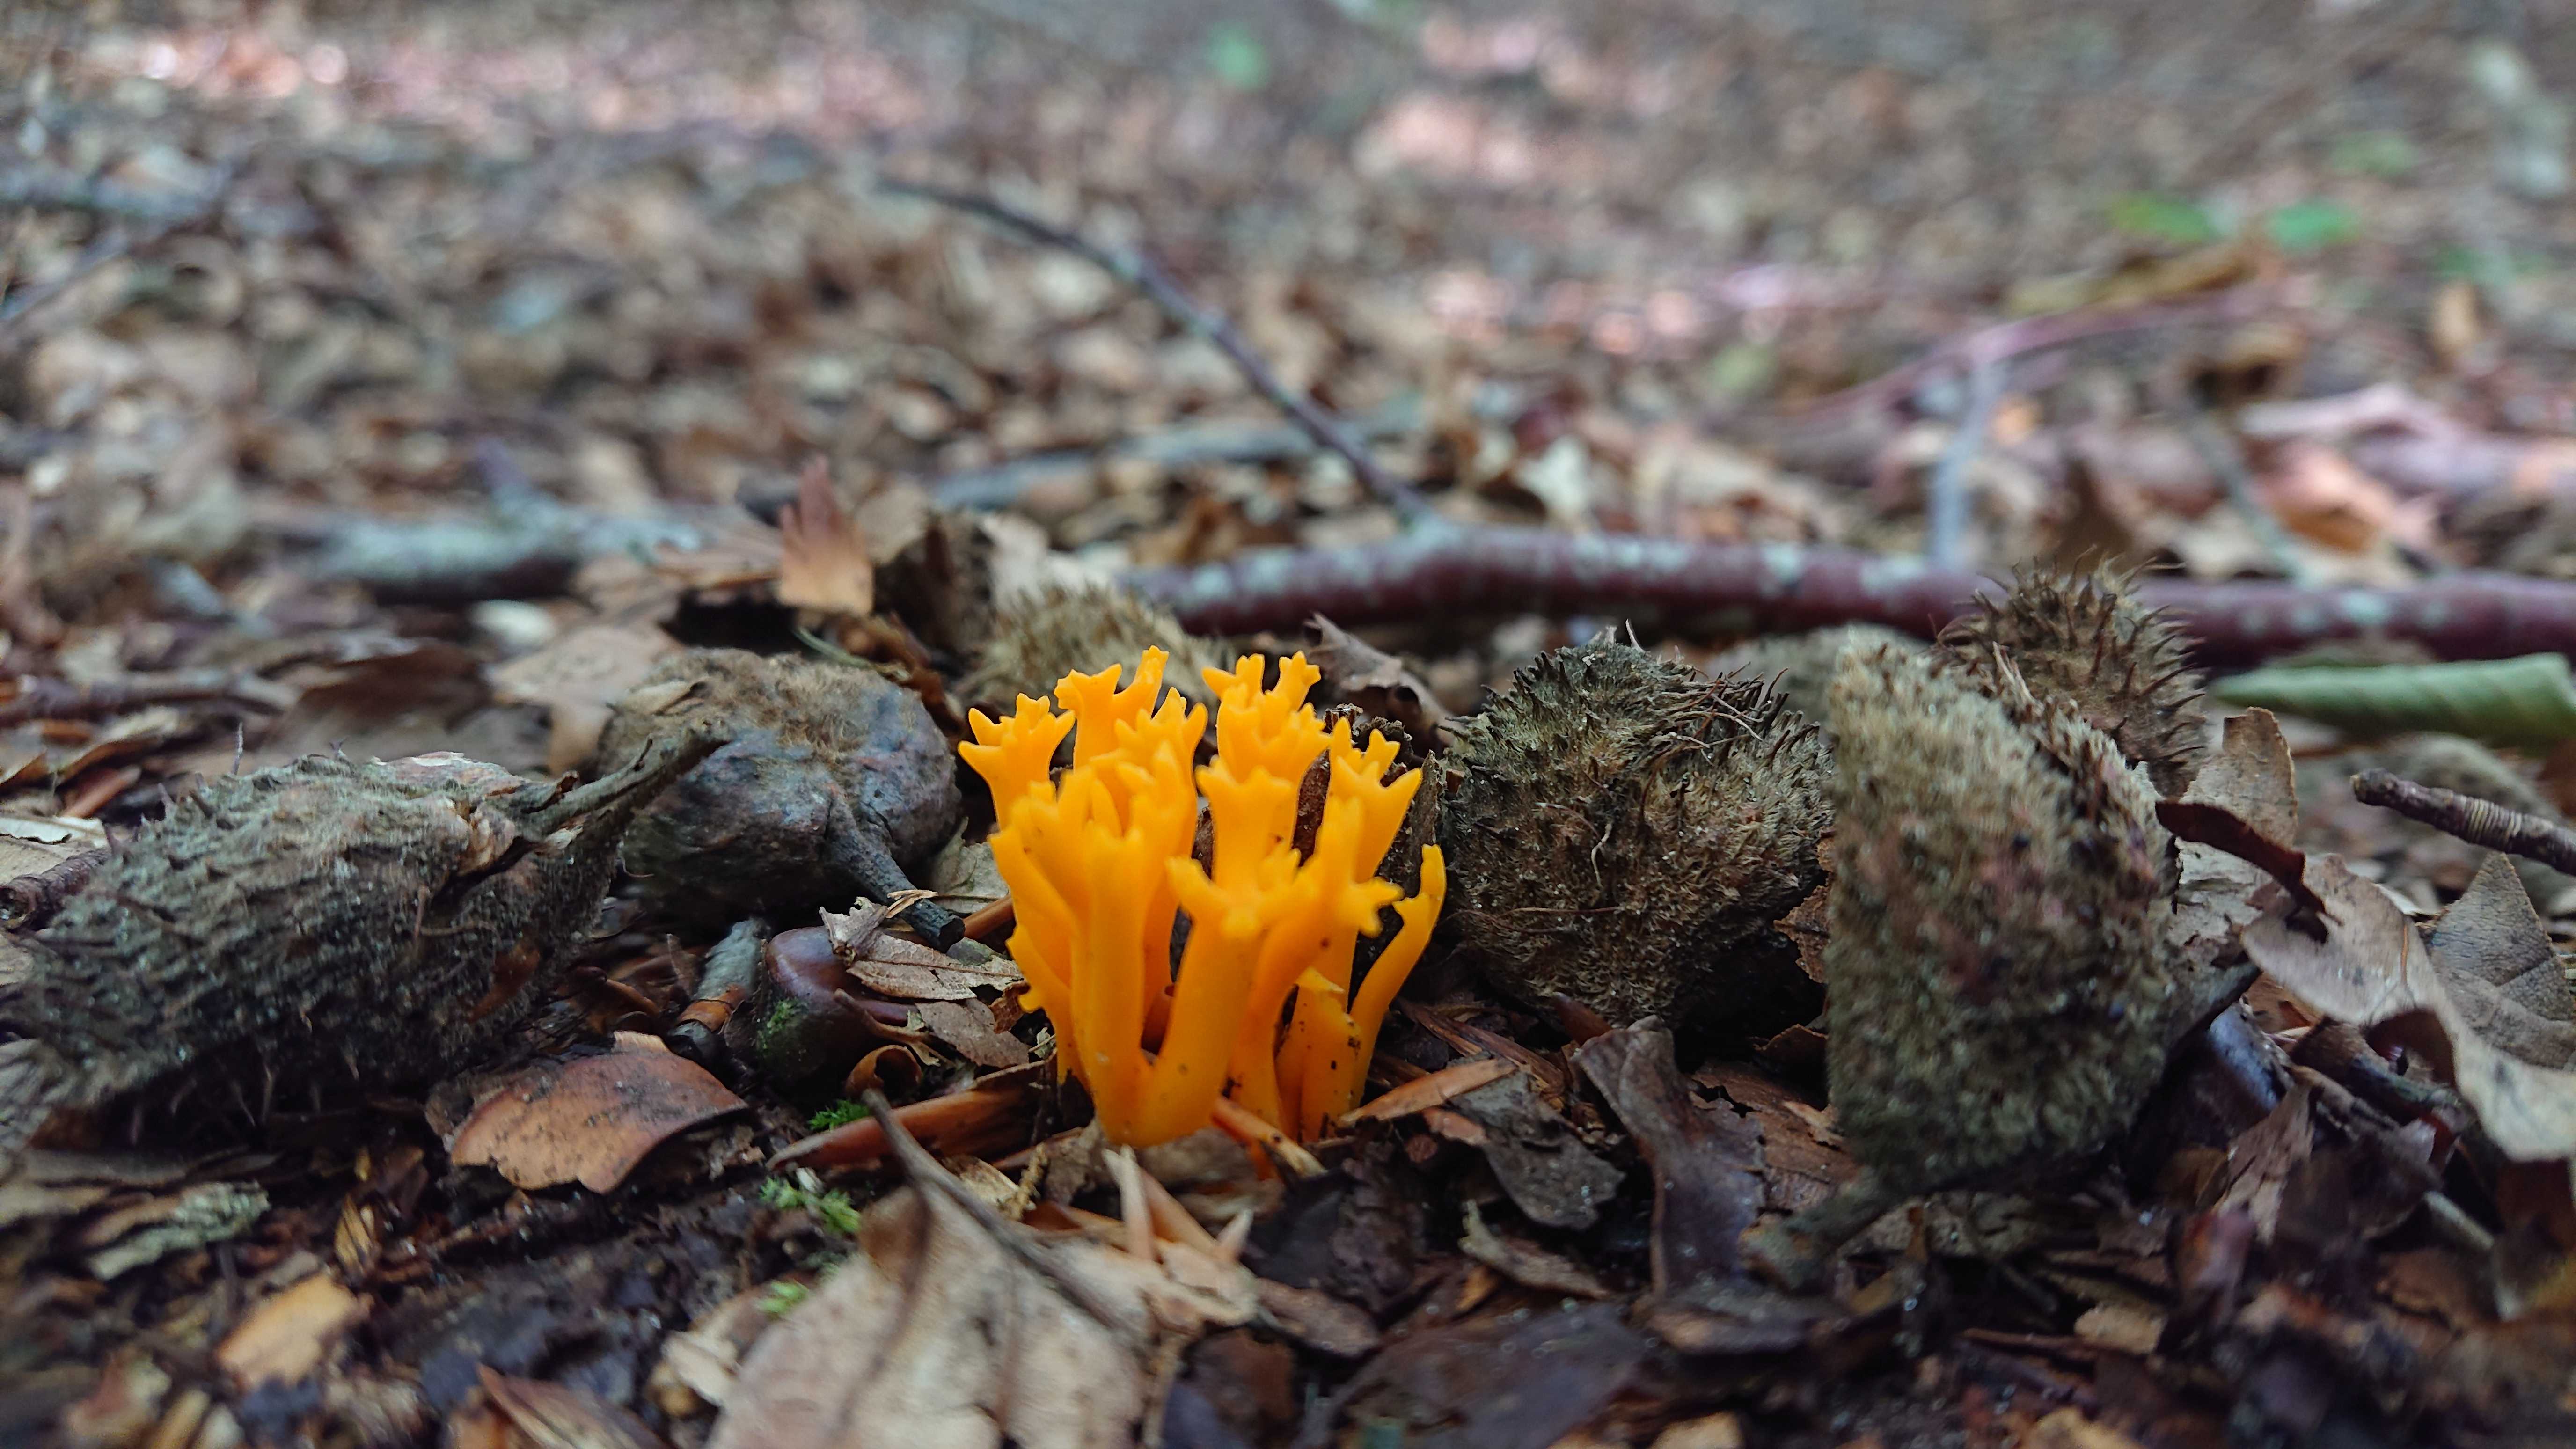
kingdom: Fungi
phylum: Basidiomycota
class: Dacrymycetes
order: Dacrymycetales
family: Dacrymycetaceae
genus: Calocera
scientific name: Calocera viscosa
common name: almindelig guldgaffel
